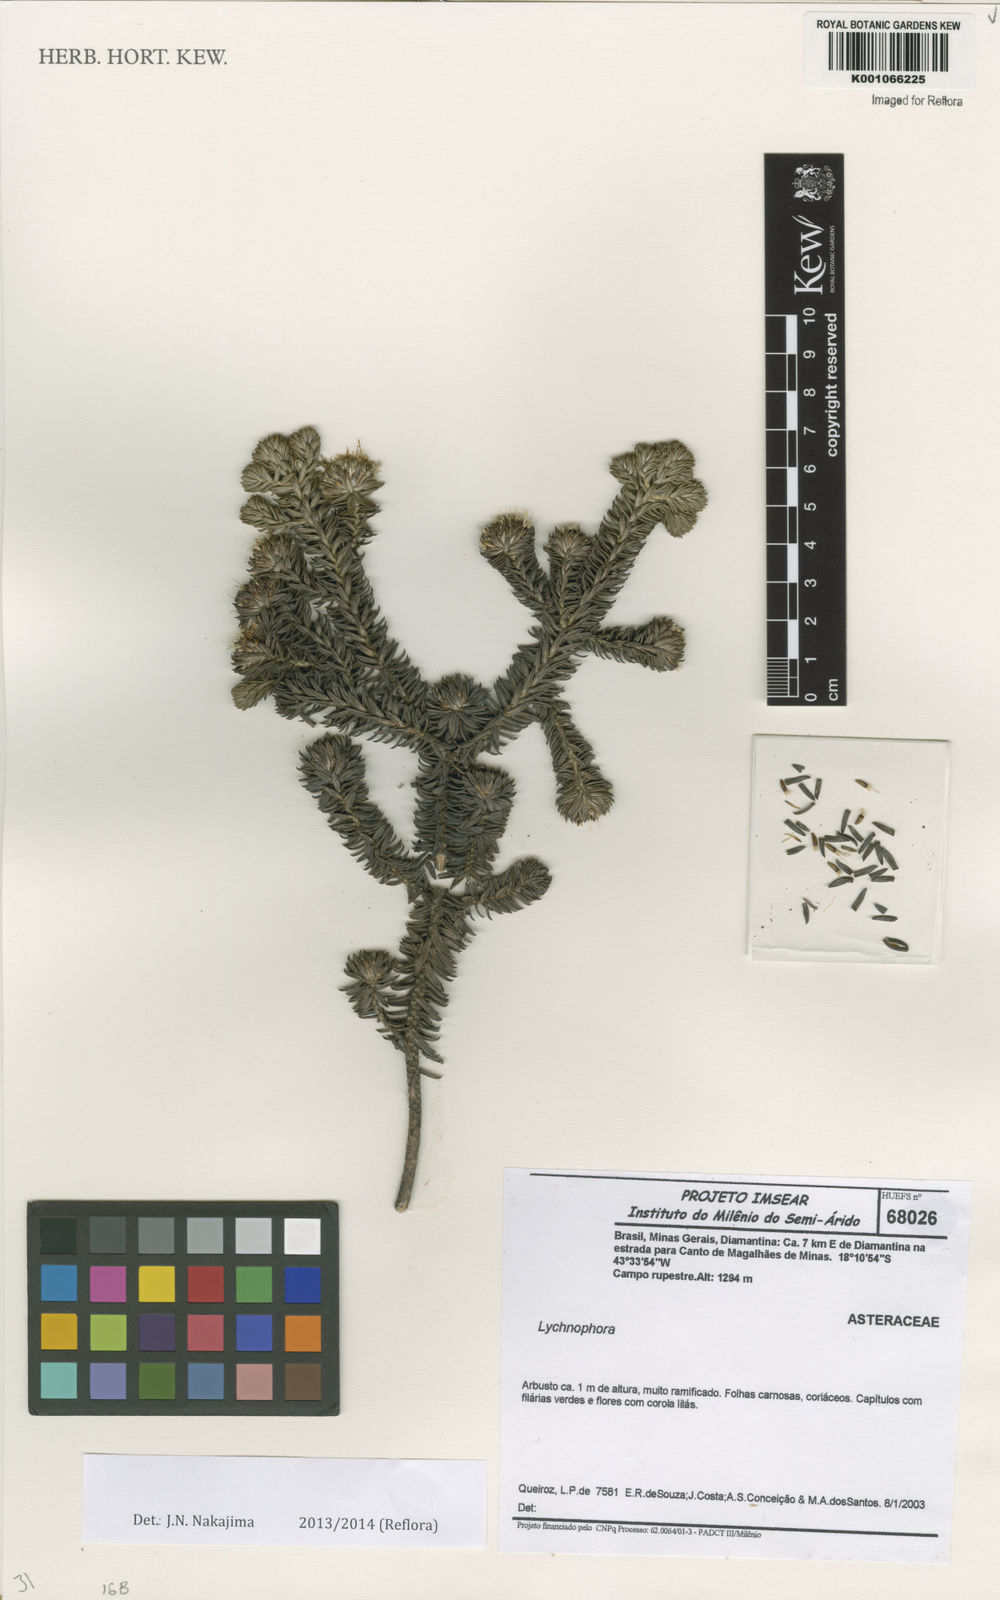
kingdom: Plantae
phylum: Tracheophyta
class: Magnoliopsida
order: Asterales
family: Asteraceae
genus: Lychnophora
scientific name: Lychnophora phylicifolia
